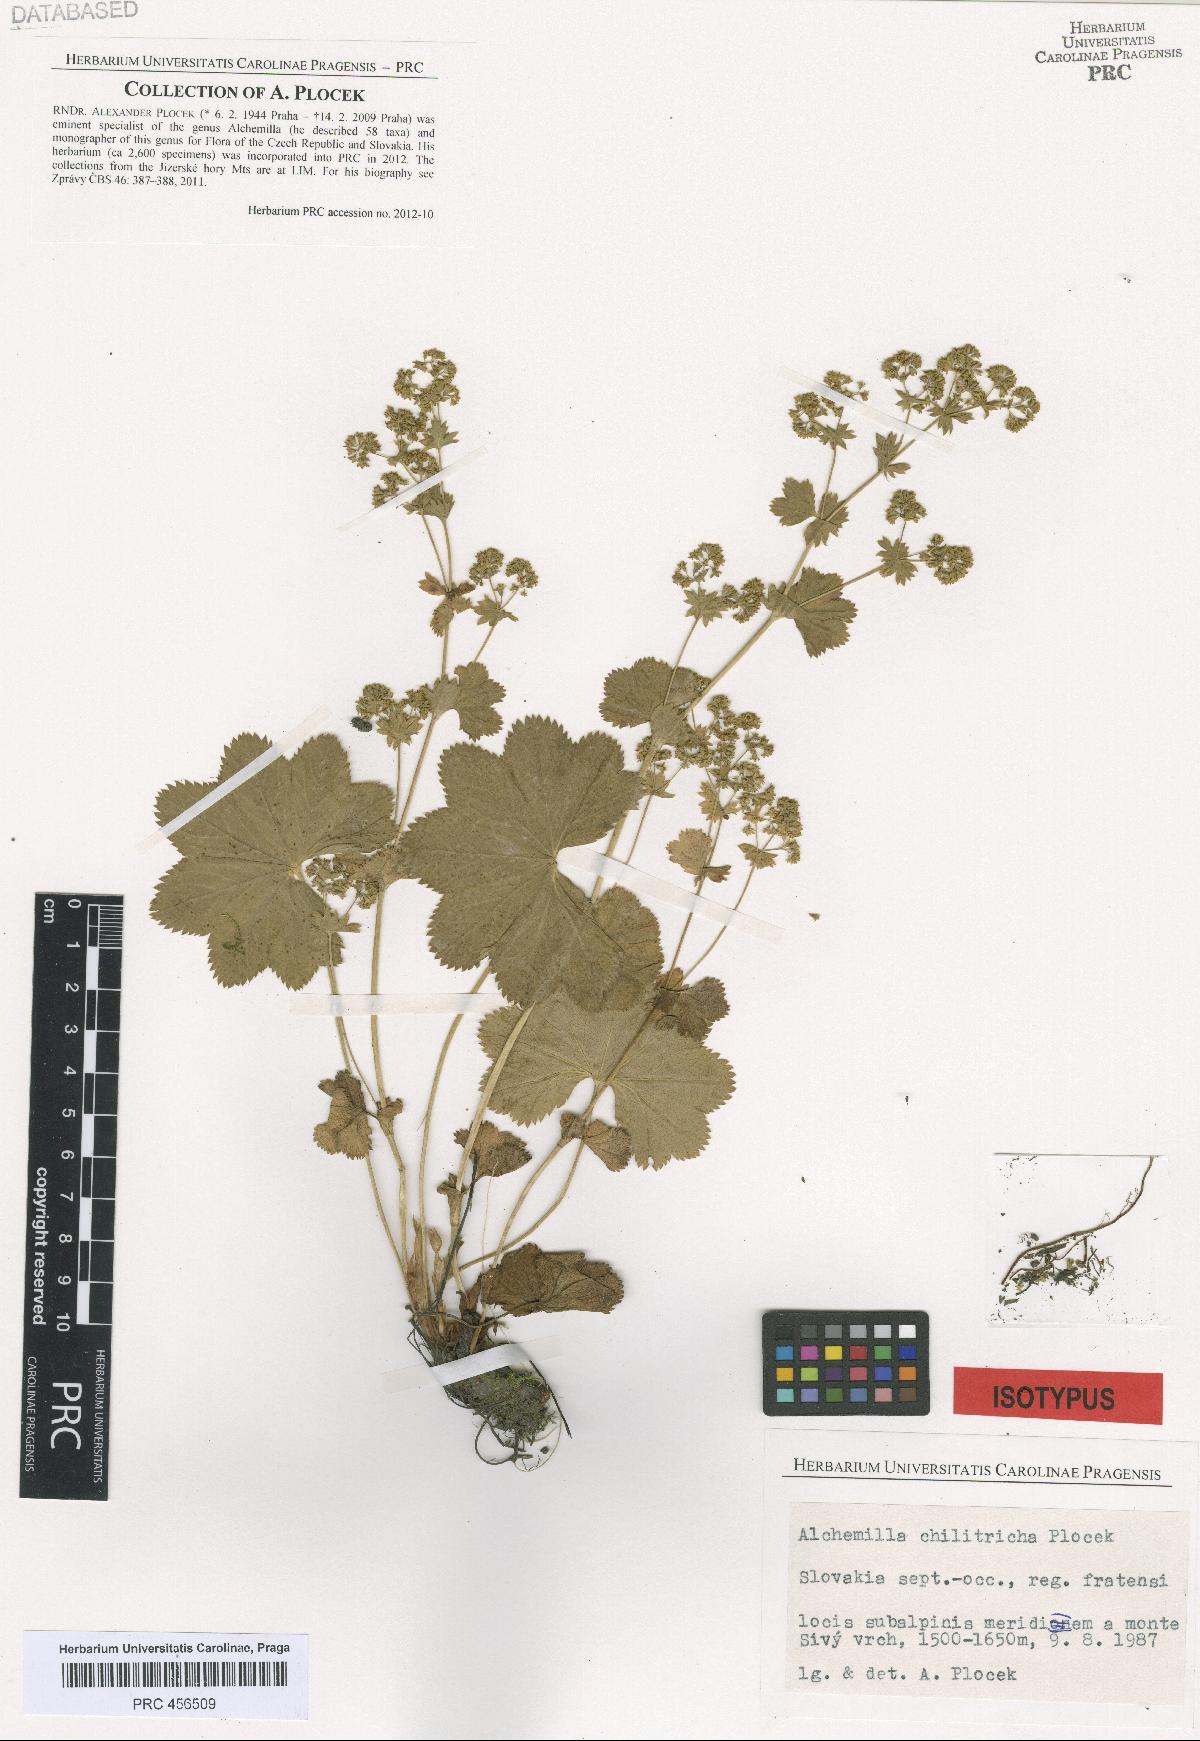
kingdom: Plantae
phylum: Tracheophyta
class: Magnoliopsida
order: Rosales
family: Rosaceae
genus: Alchemilla
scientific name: Alchemilla chilitricha
